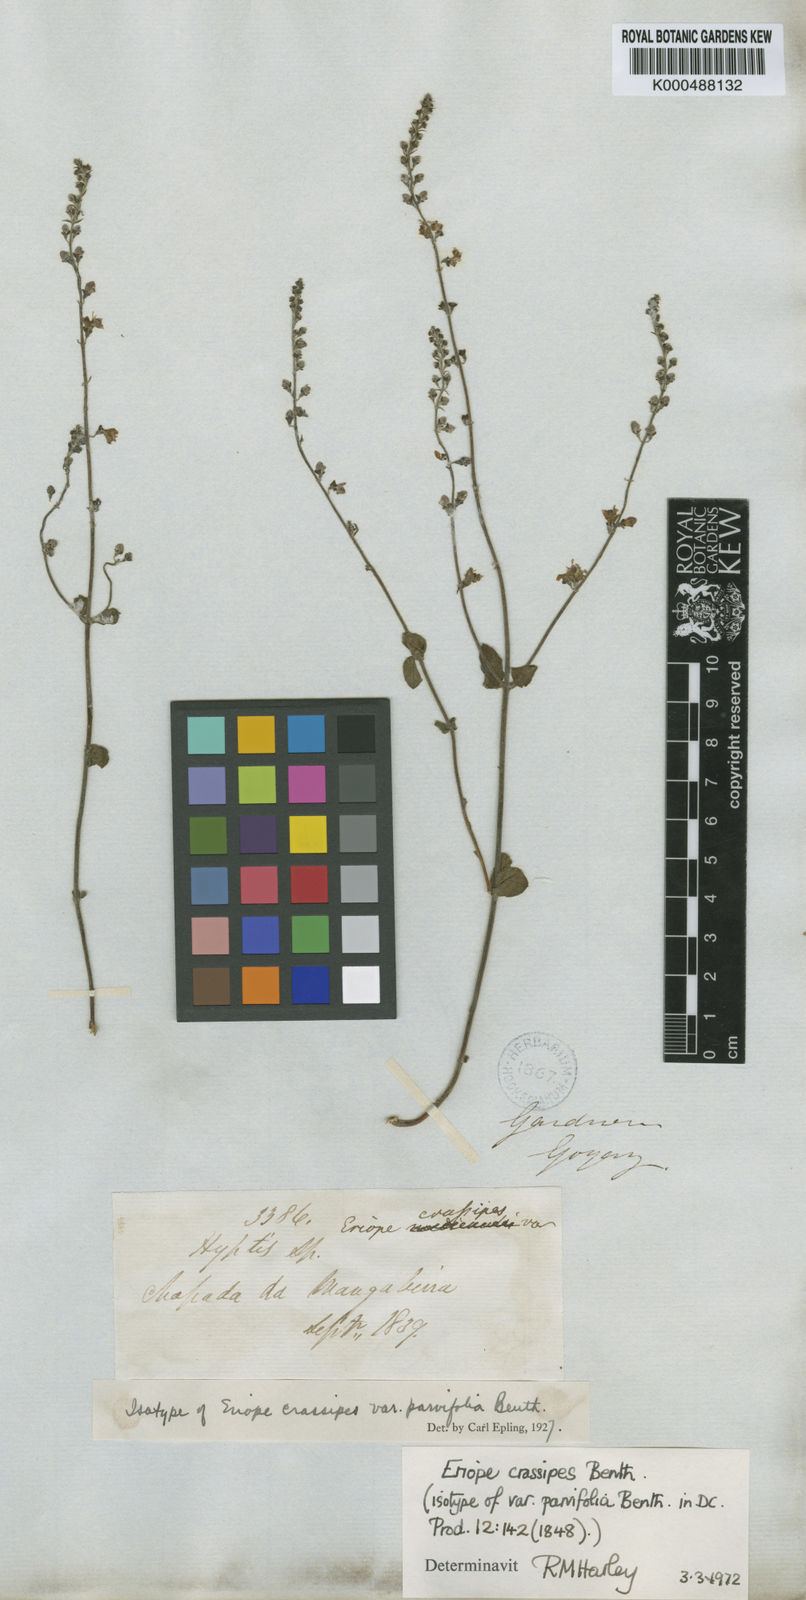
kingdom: Plantae
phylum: Tracheophyta
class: Magnoliopsida
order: Lamiales
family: Lamiaceae
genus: Eriope
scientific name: Eriope crassipes
